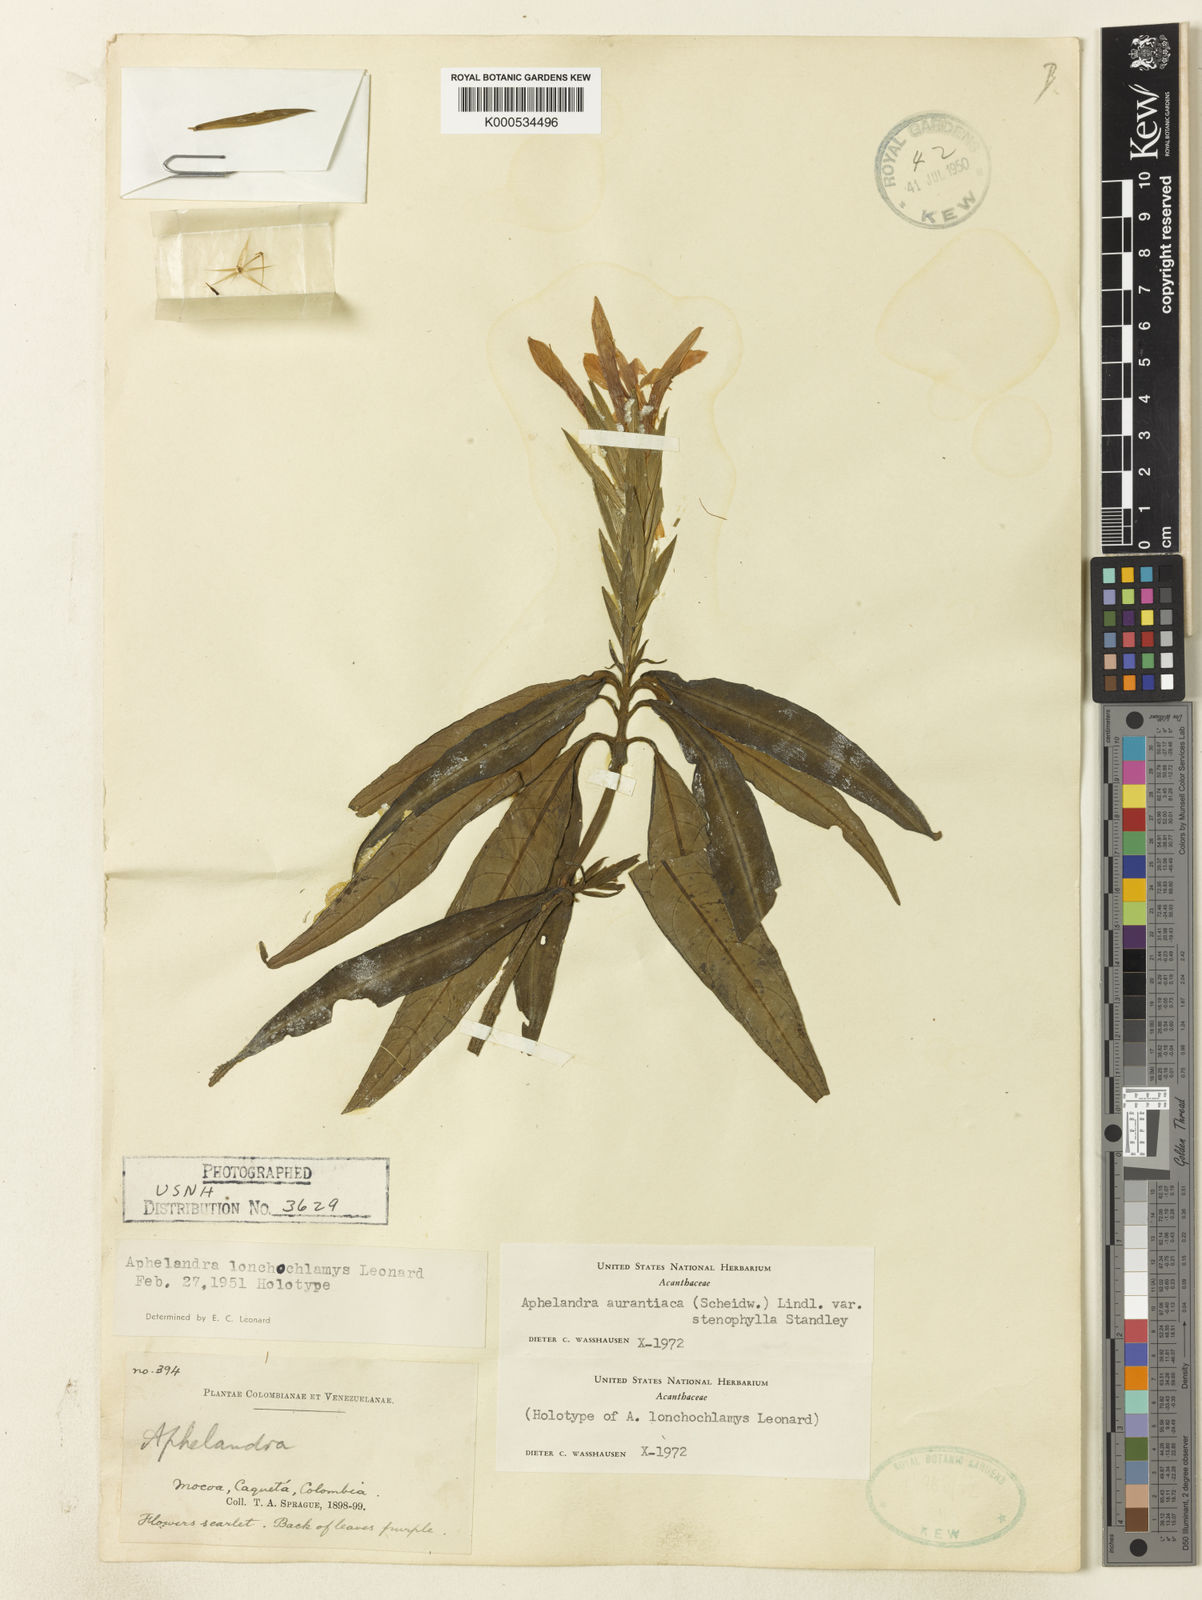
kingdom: Plantae
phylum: Tracheophyta
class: Magnoliopsida
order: Lamiales
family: Acanthaceae
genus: Aphelandra
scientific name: Aphelandra aurantiaca
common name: Fiery spike
